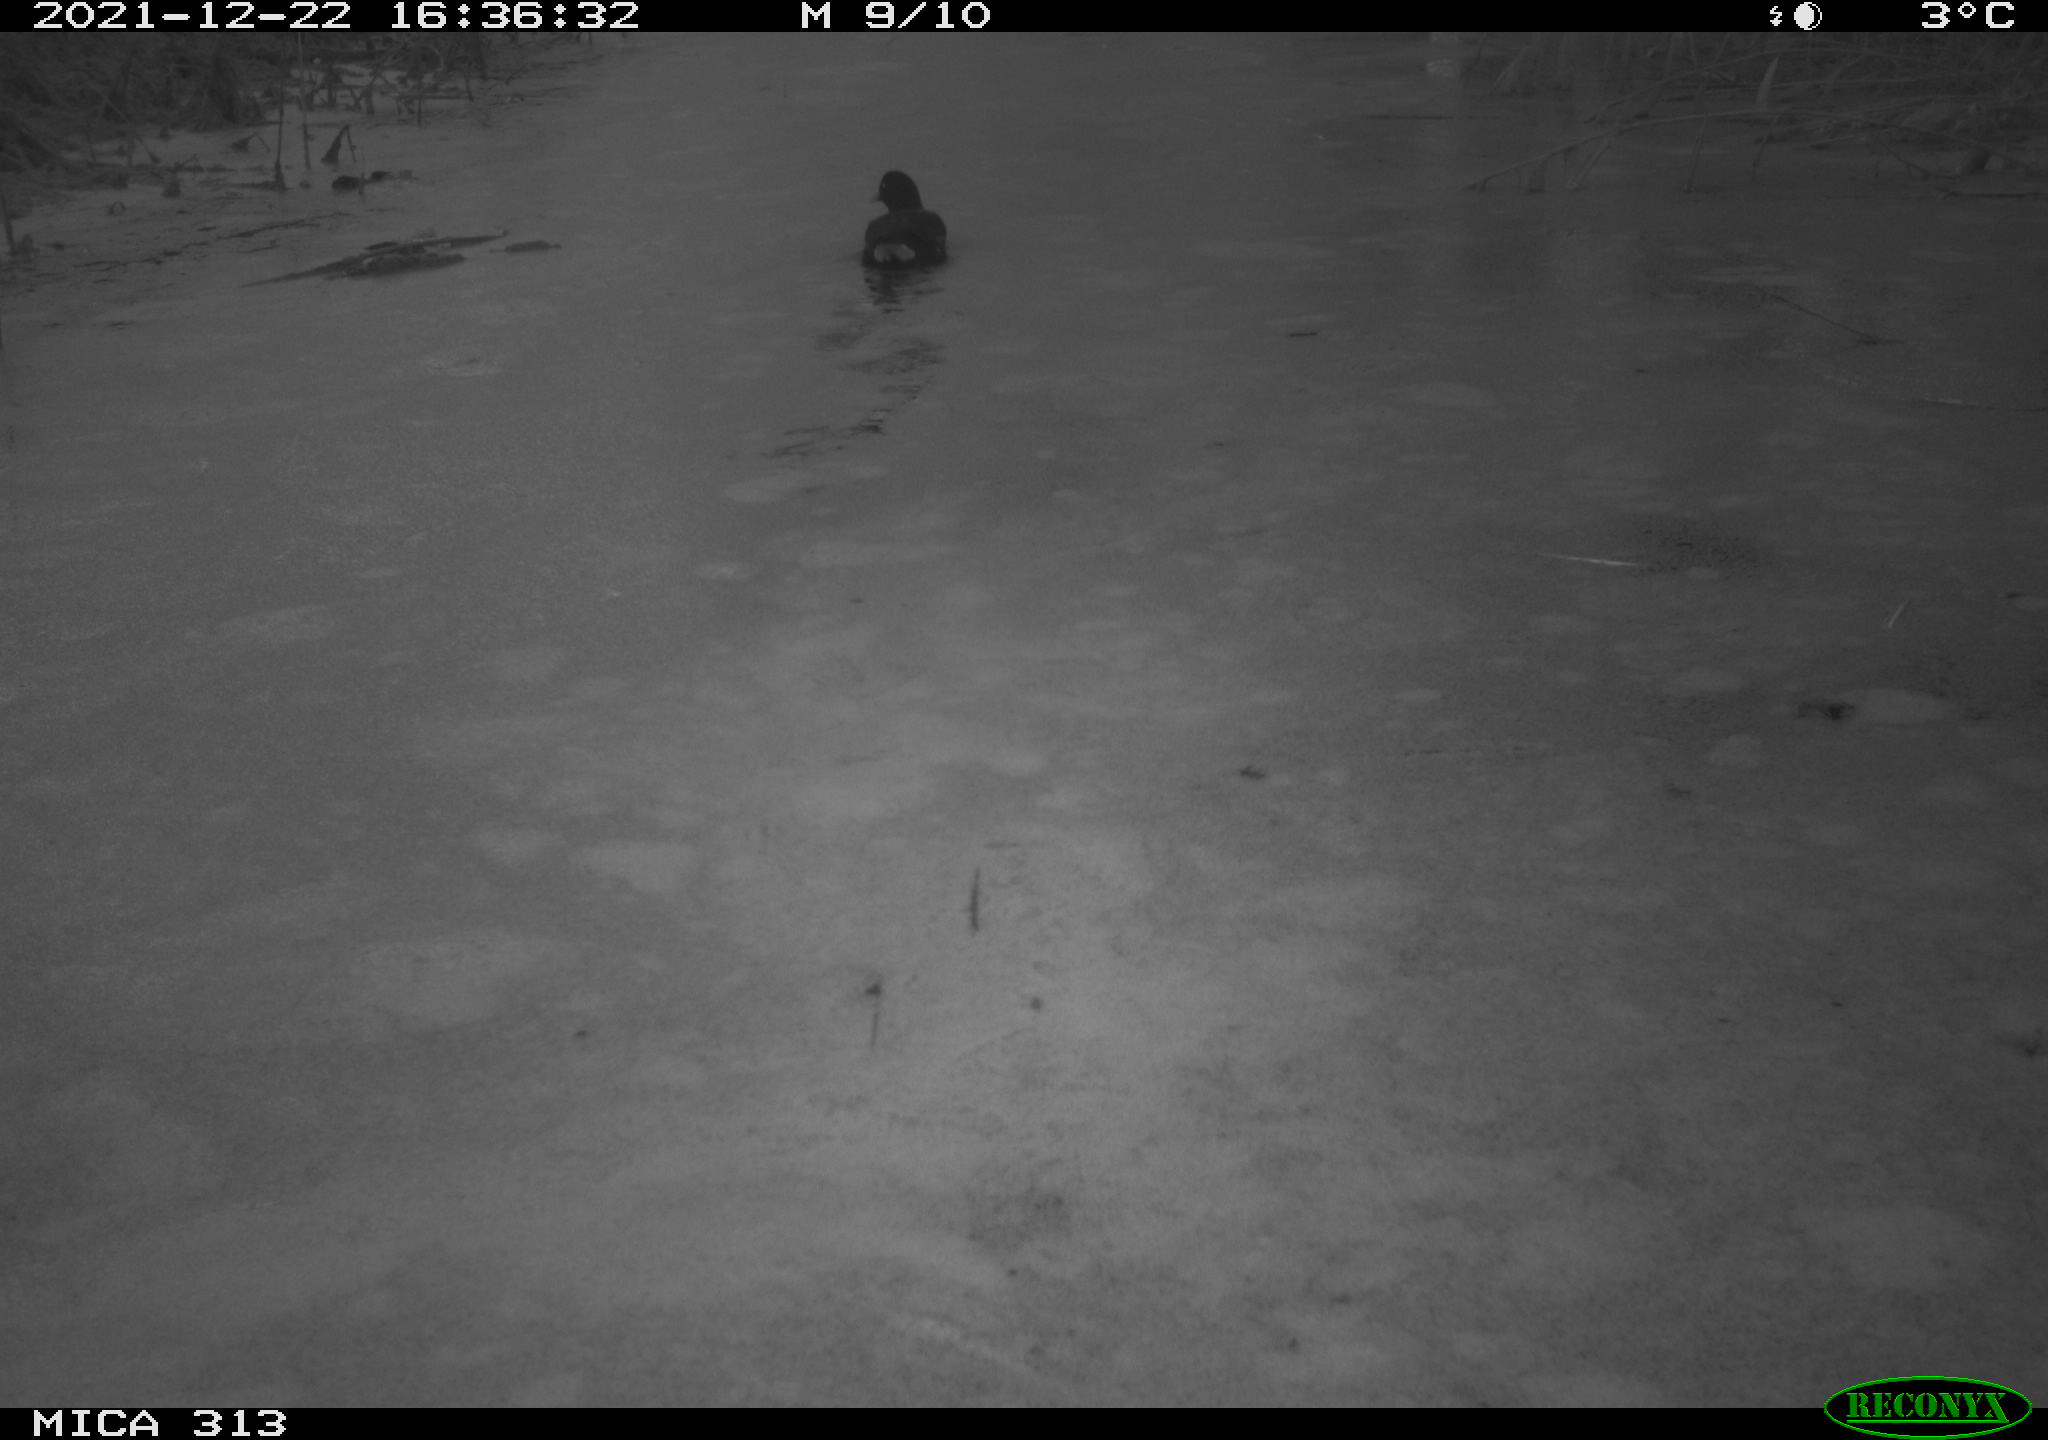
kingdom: Animalia
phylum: Chordata
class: Aves
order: Gruiformes
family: Rallidae
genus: Gallinula
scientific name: Gallinula chloropus
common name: Common moorhen
